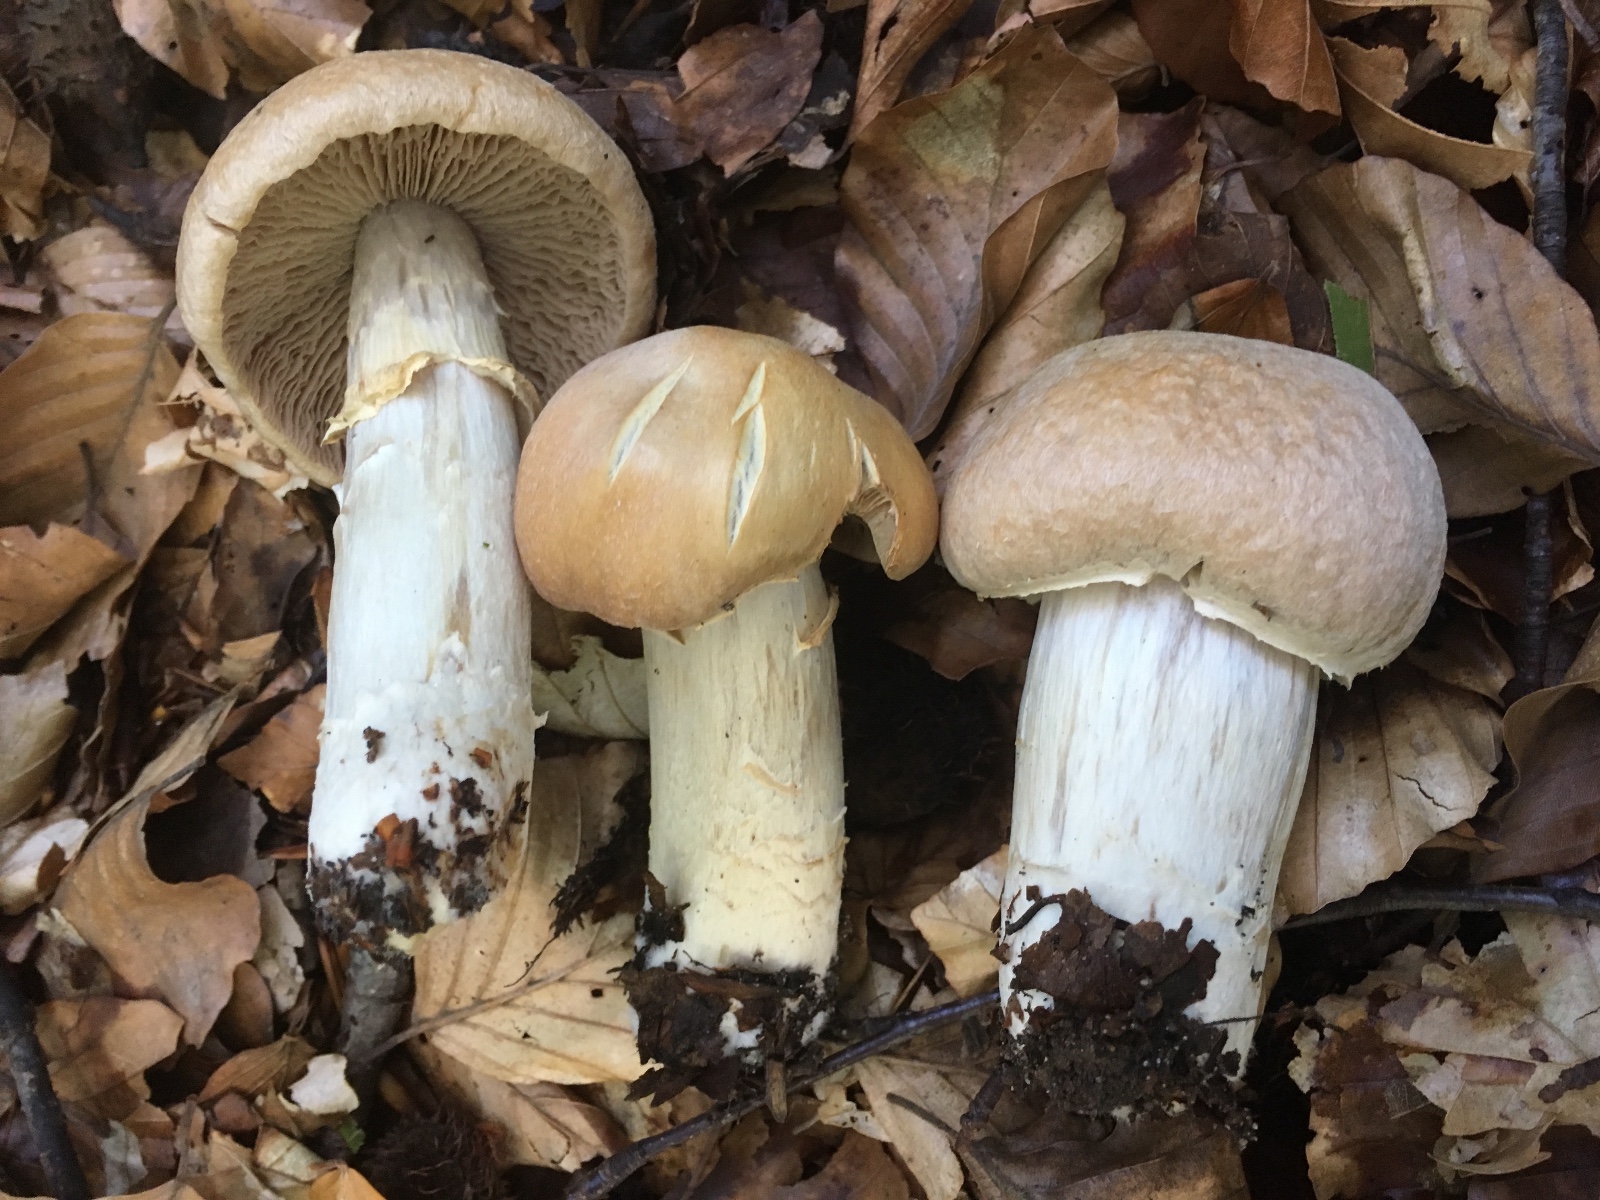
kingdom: Fungi
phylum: Basidiomycota
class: Agaricomycetes
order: Agaricales
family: Cortinariaceae
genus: Cortinarius
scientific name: Cortinarius caperatus
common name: klidhat
